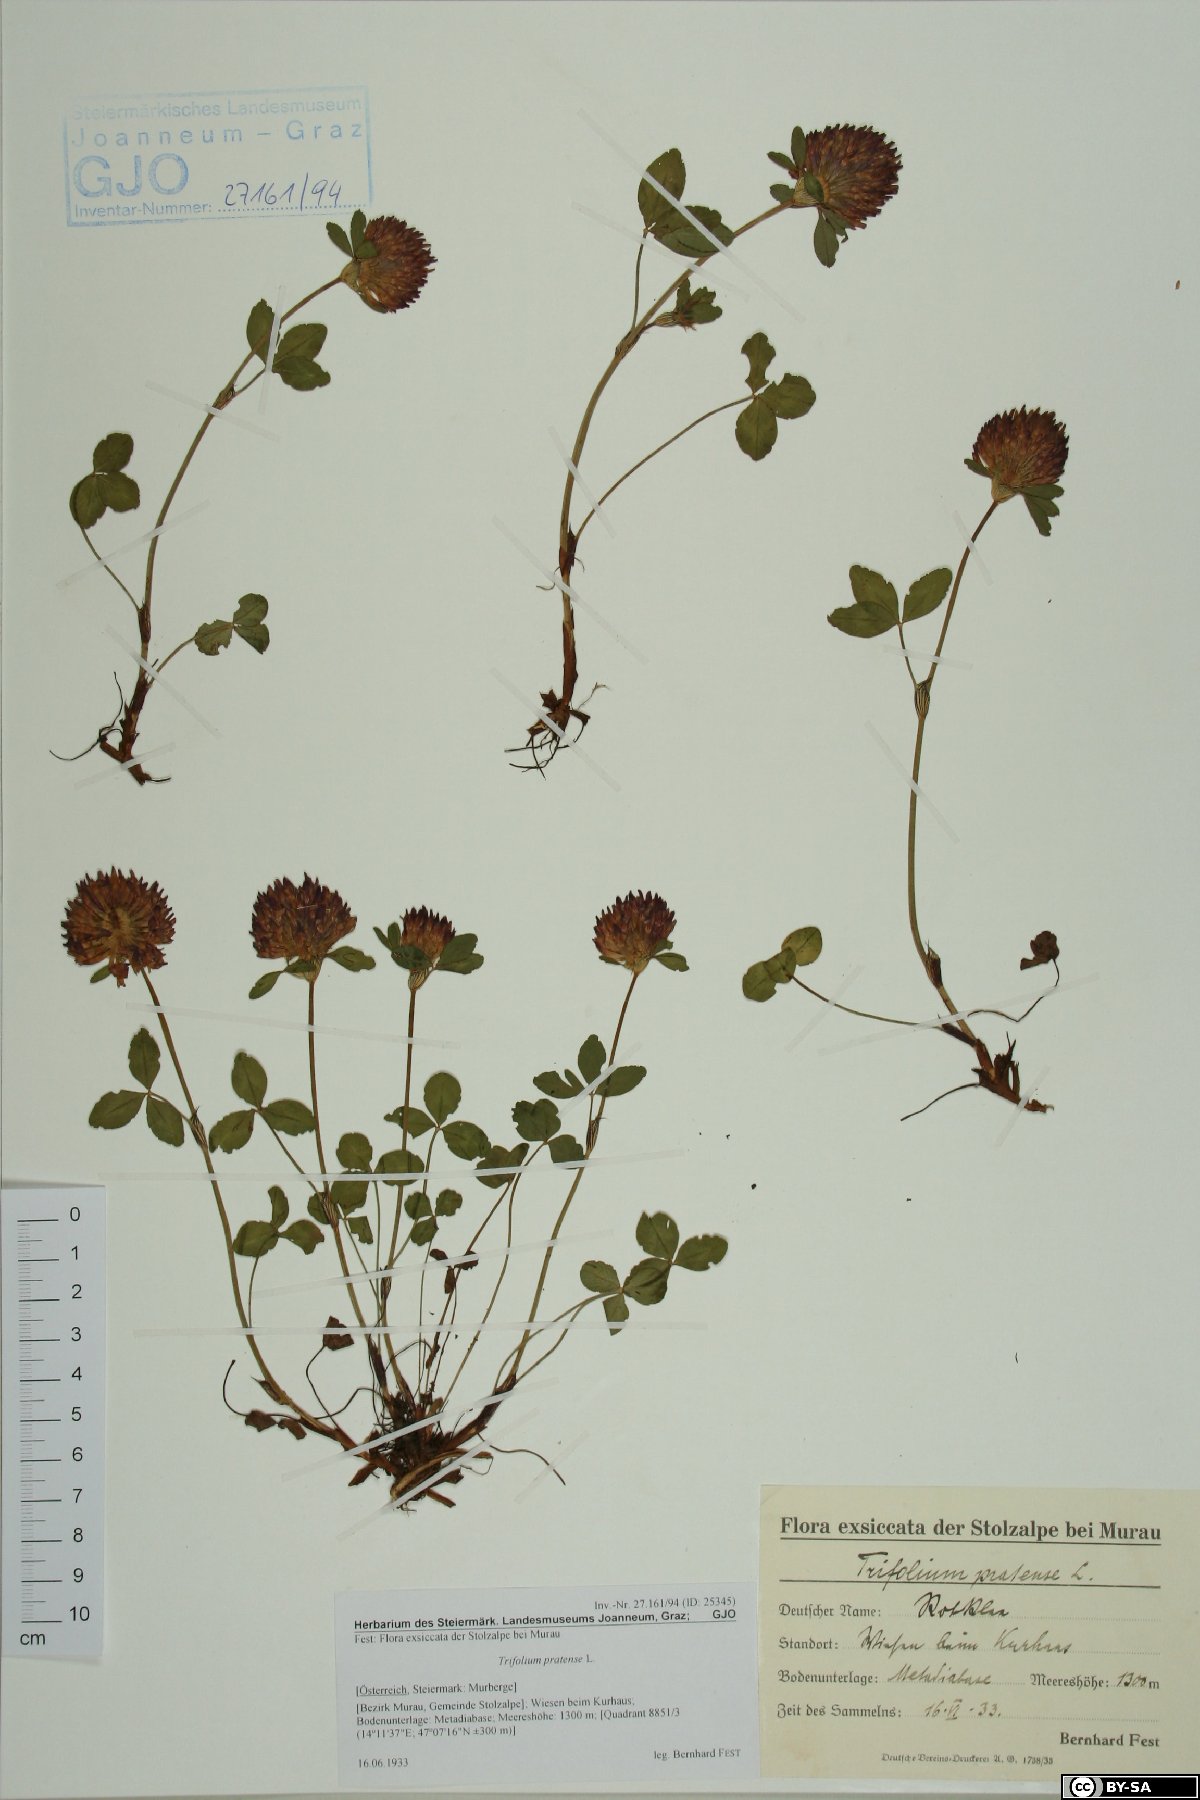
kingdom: Plantae
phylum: Tracheophyta
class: Magnoliopsida
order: Fabales
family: Fabaceae
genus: Trifolium
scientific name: Trifolium pratense
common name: Red clover
